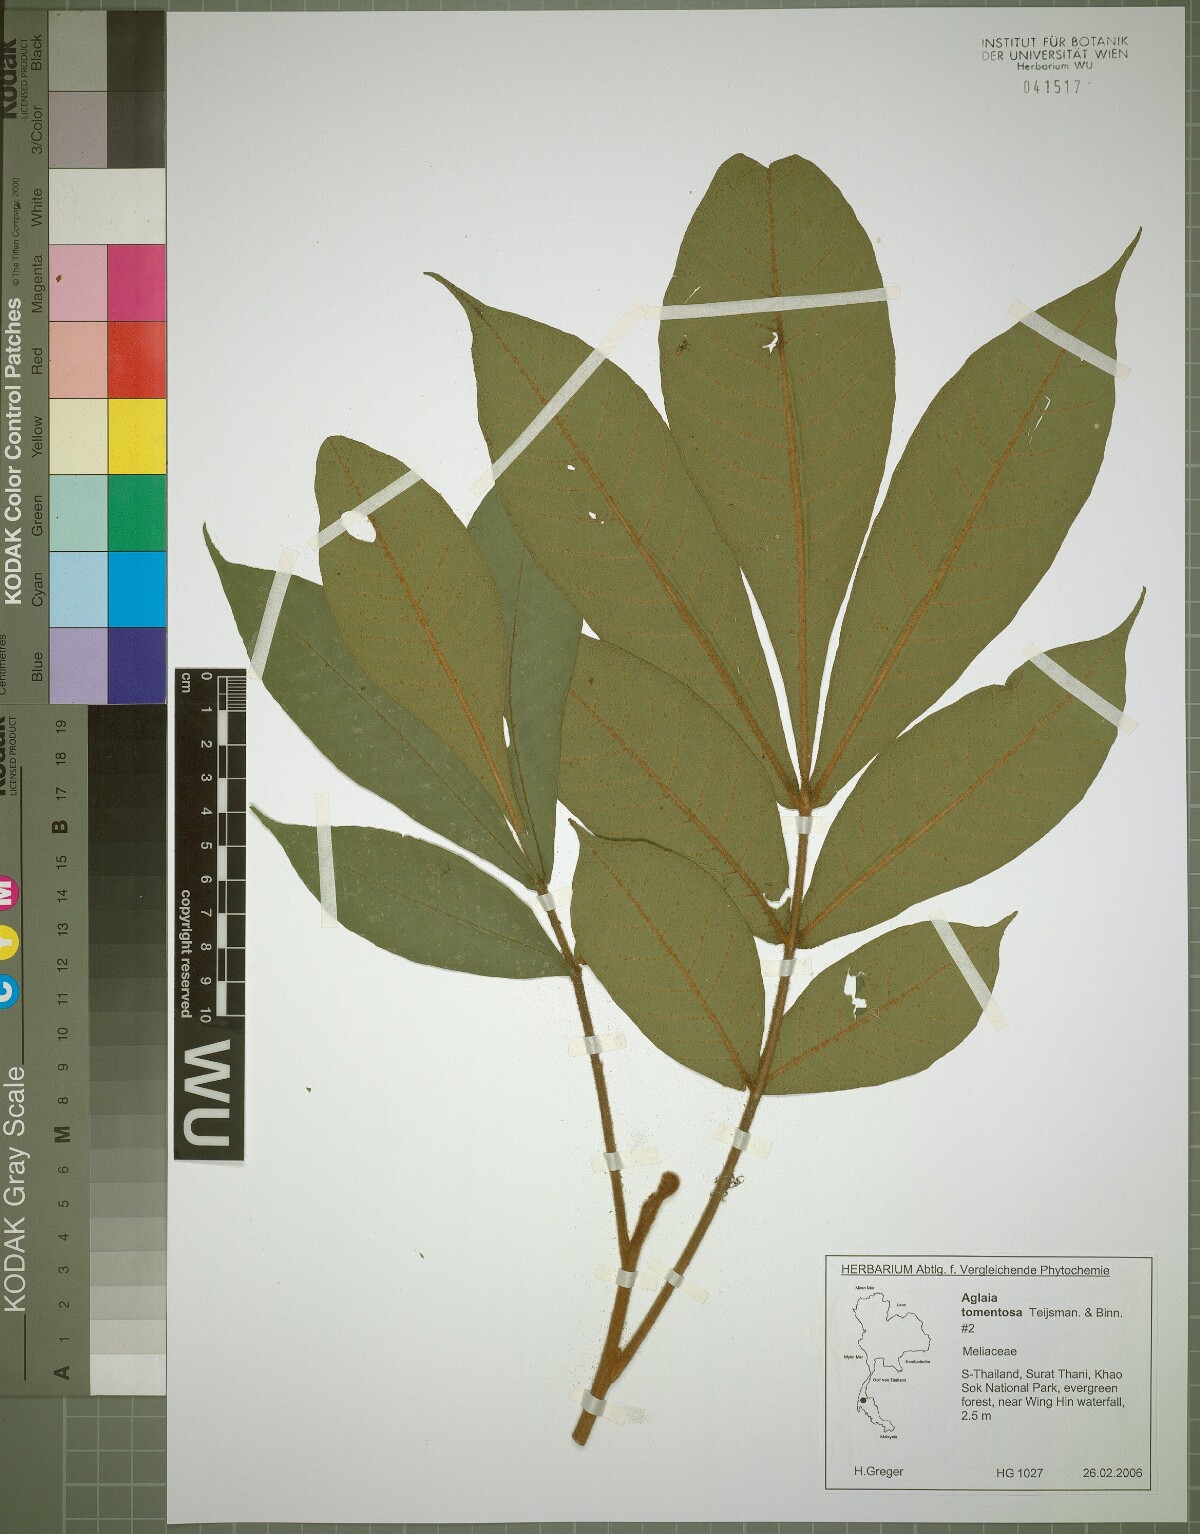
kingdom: Plantae
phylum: Tracheophyta
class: Magnoliopsida
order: Sapindales
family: Meliaceae
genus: Aglaia
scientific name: Aglaia tomentosa
